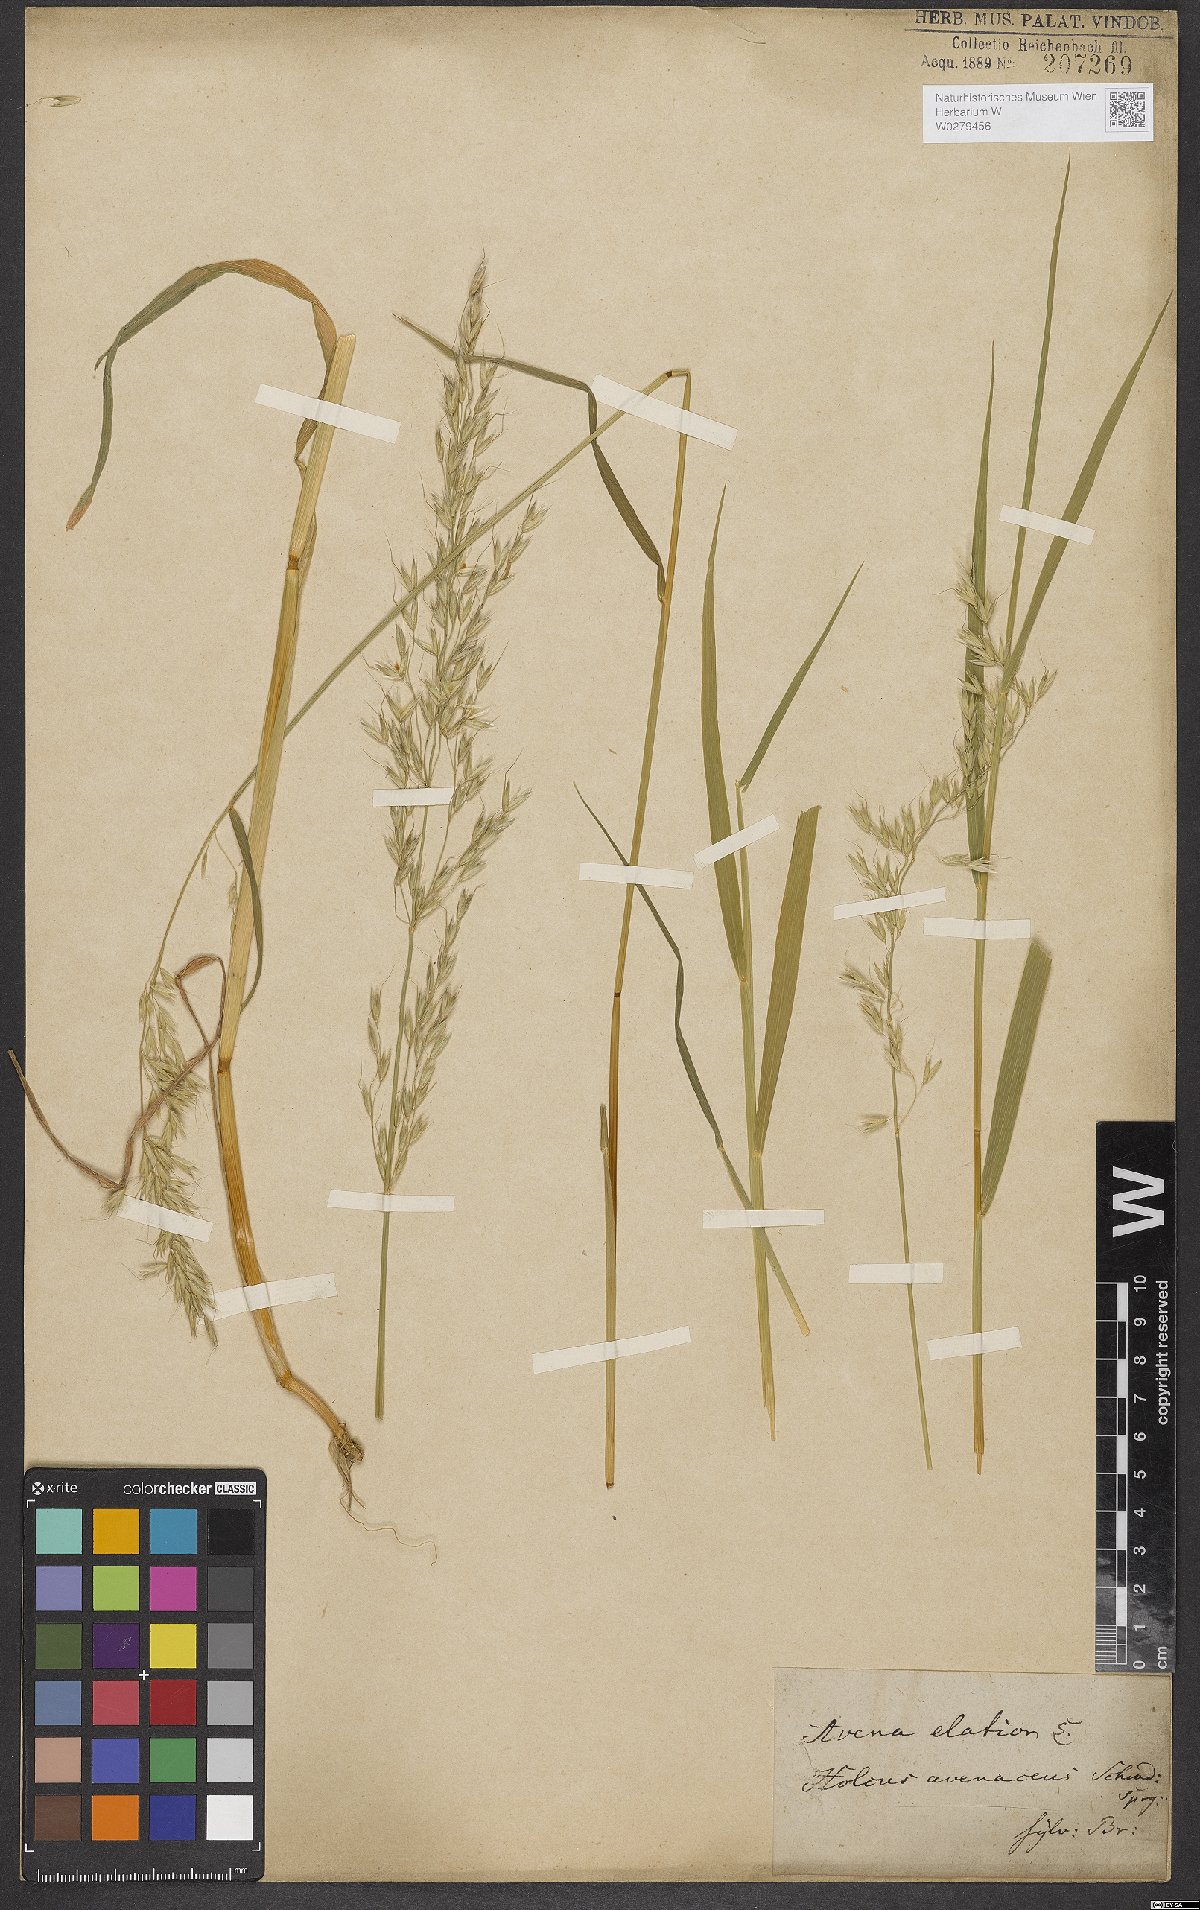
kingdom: Plantae
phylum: Tracheophyta
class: Liliopsida
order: Poales
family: Poaceae
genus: Arrhenatherum
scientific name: Arrhenatherum elatius
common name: Tall oatgrass
